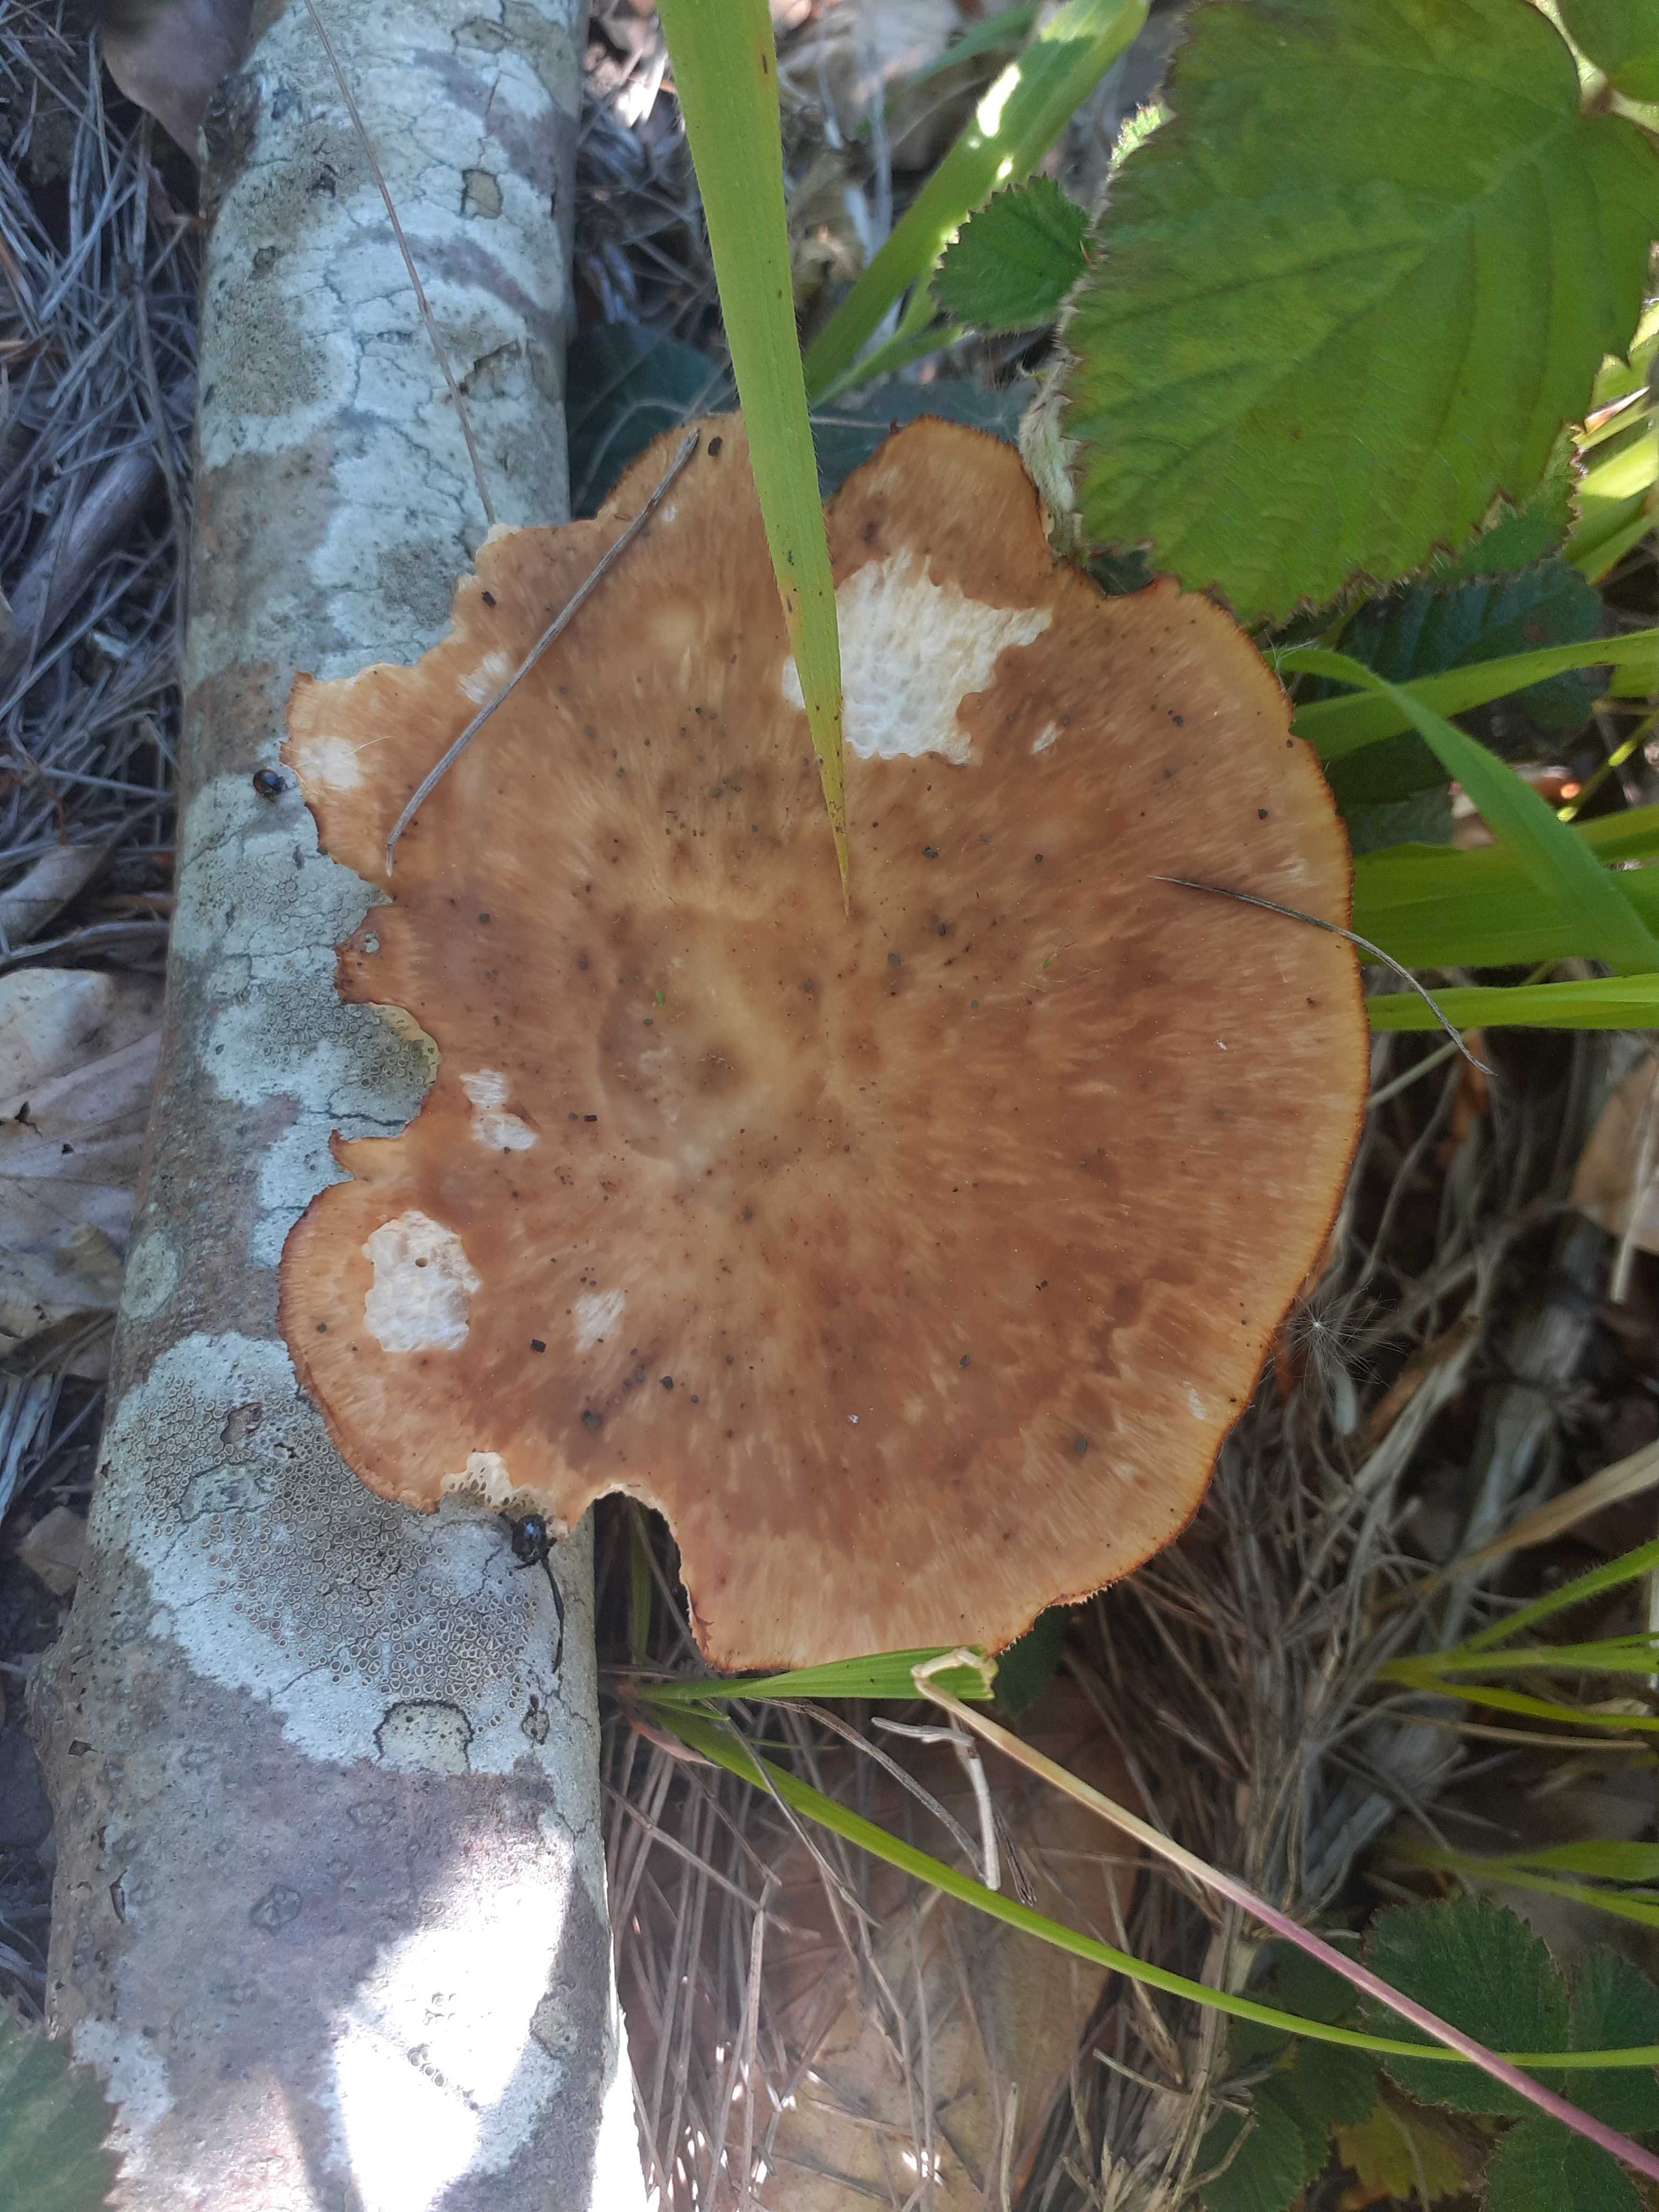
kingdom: Fungi
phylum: Basidiomycota
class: Agaricomycetes
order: Polyporales
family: Polyporaceae
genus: Polyporus
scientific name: Polyporus tuberaster
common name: knoldet stilkporesvamp
